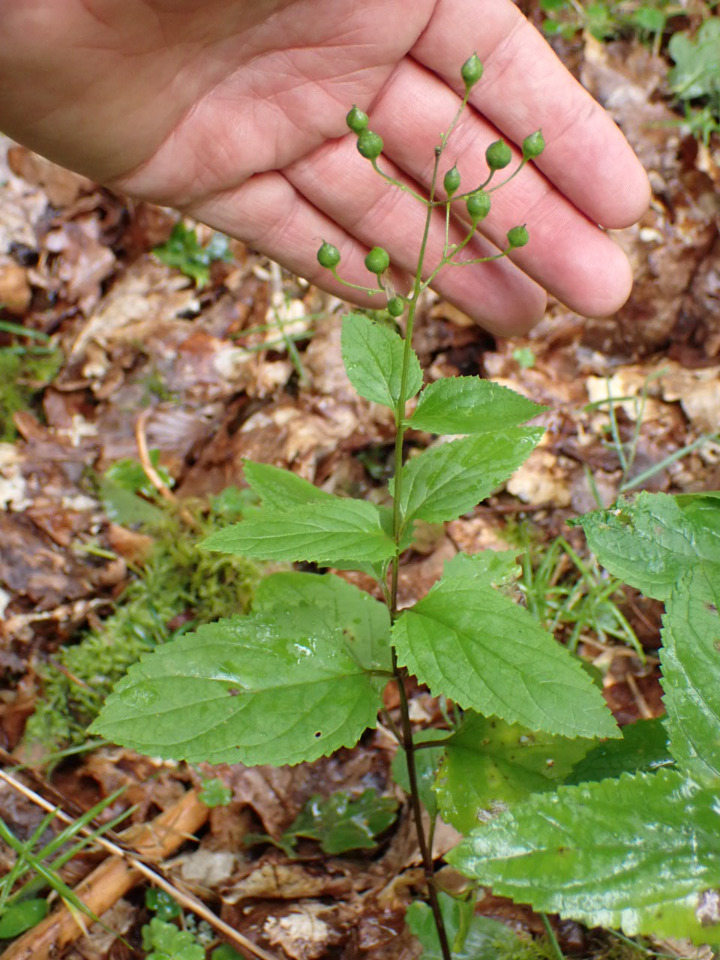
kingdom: Plantae
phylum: Tracheophyta
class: Magnoliopsida
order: Lamiales
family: Scrophulariaceae
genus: Scrophularia
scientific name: Scrophularia nodosa
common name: Knoldet brunrod
